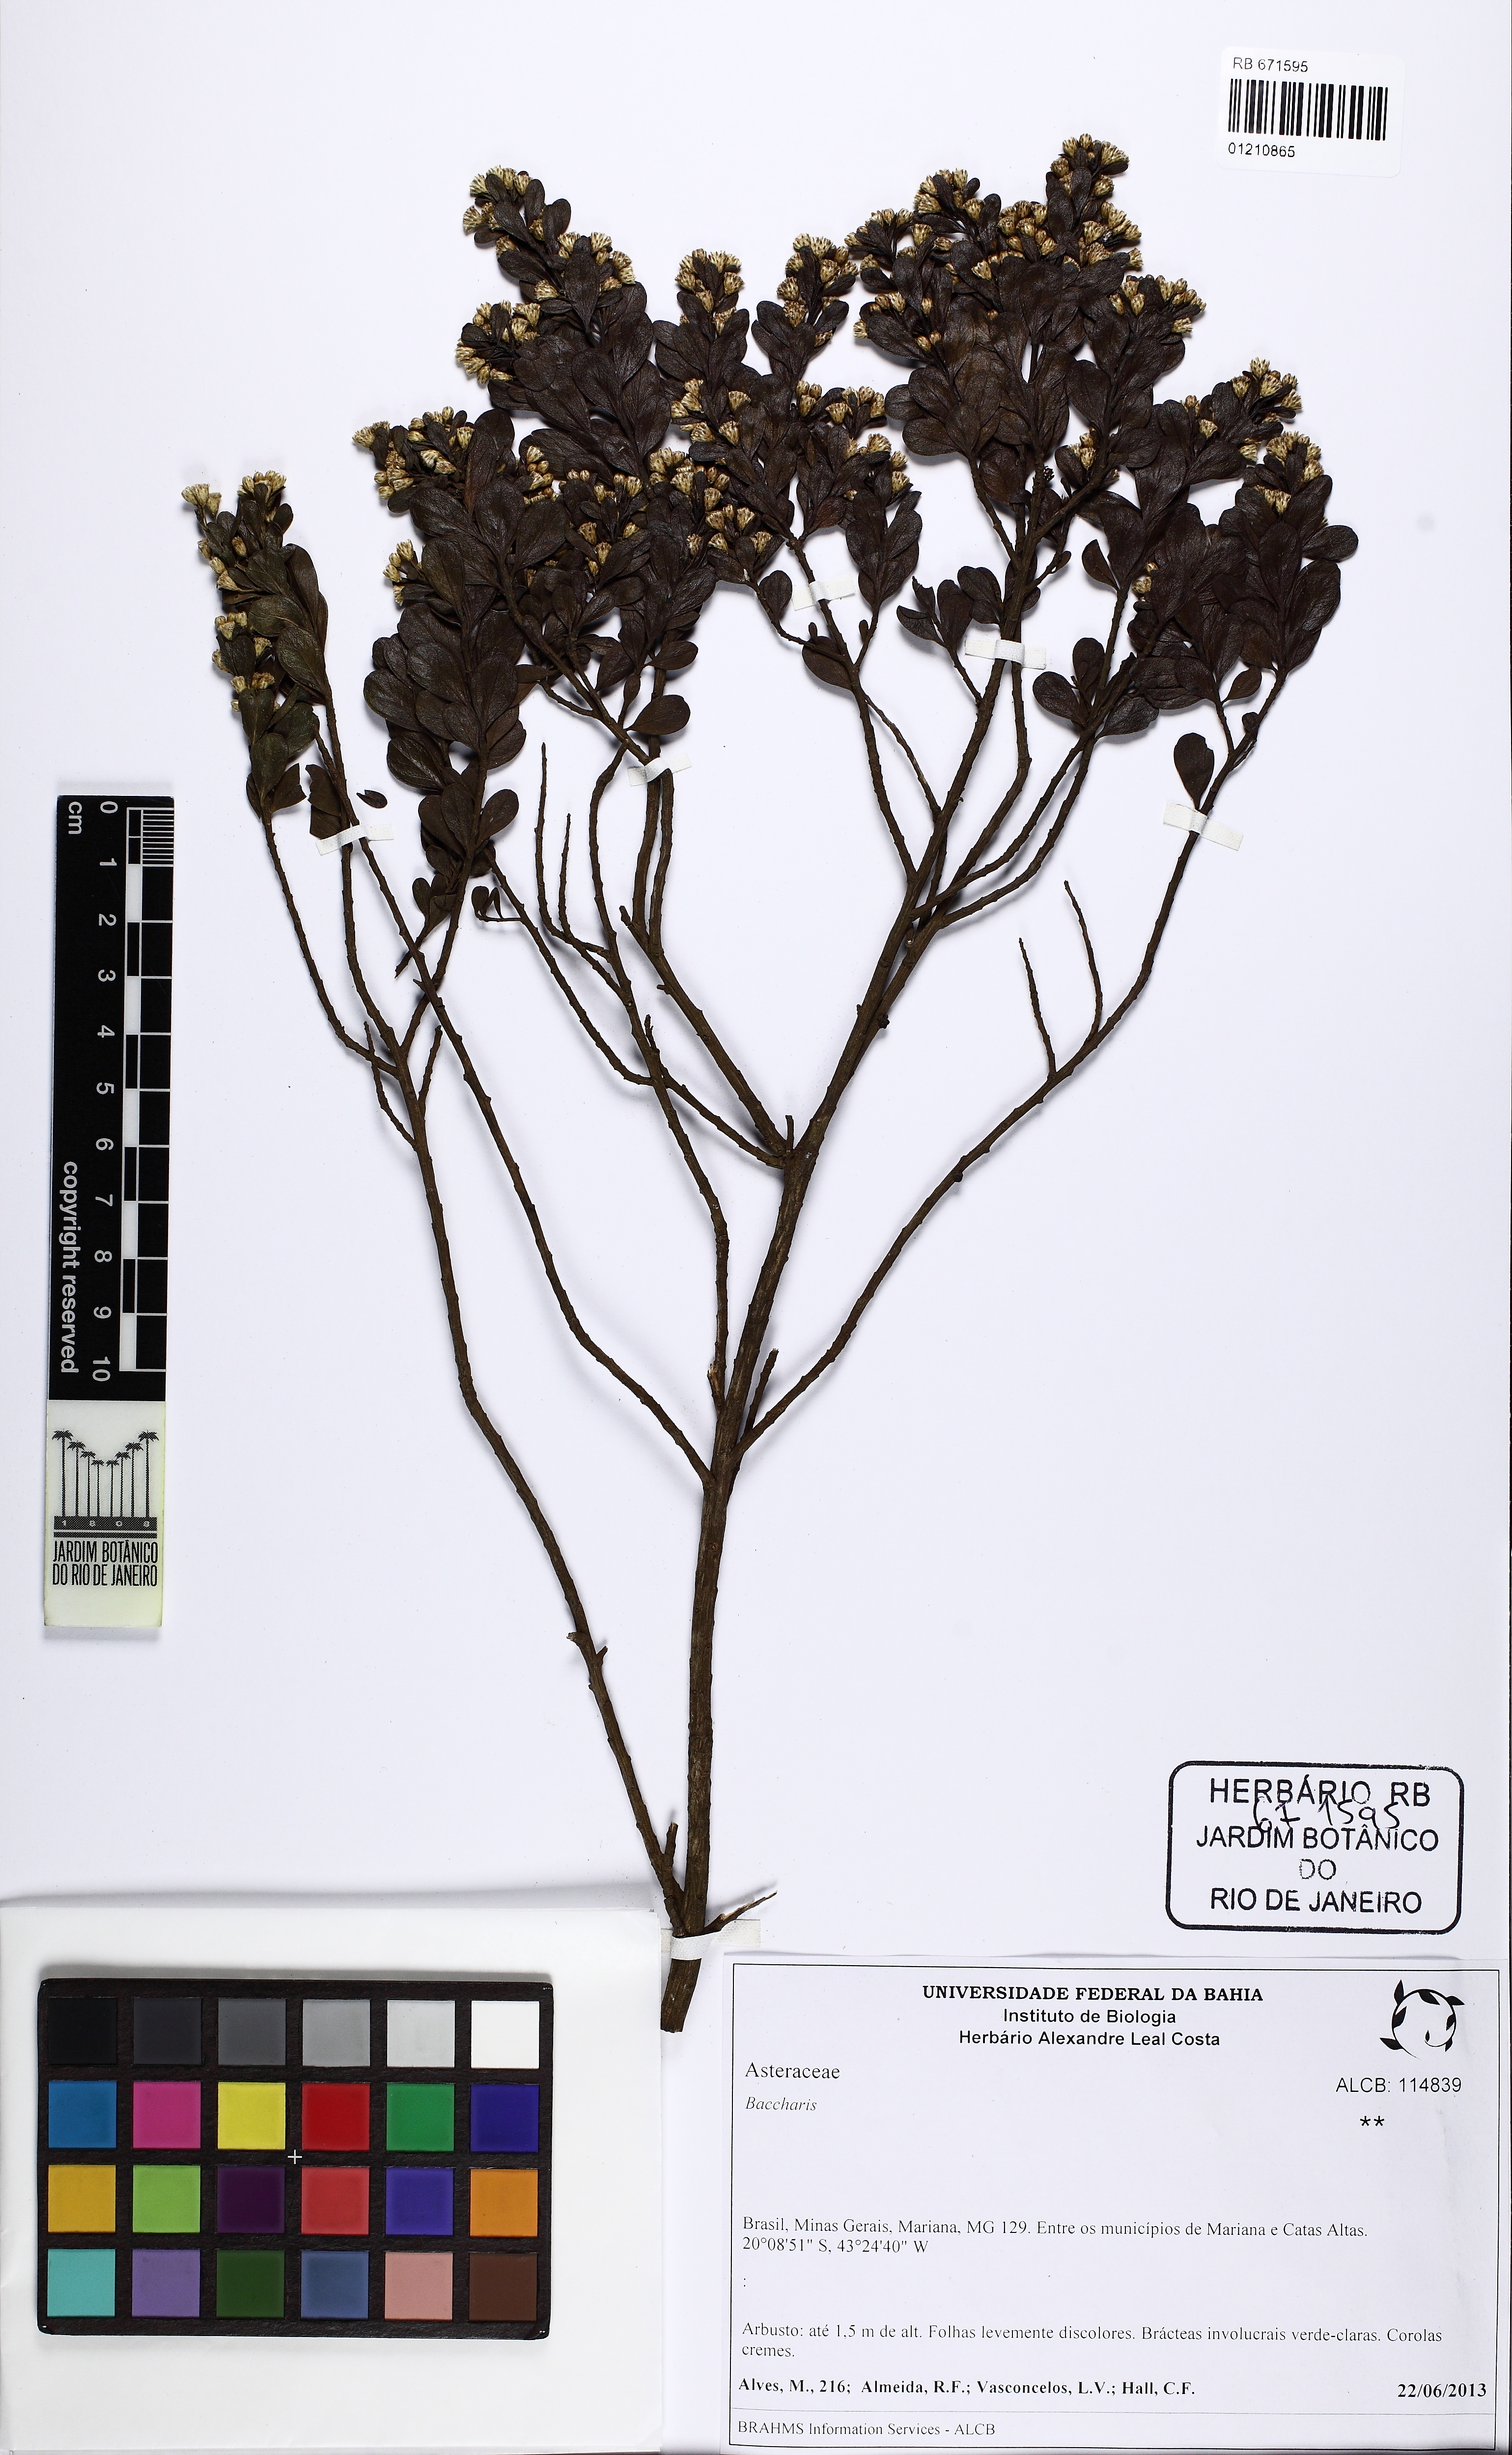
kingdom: Plantae
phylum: Tracheophyta
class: Magnoliopsida
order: Asterales
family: Asteraceae
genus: Baccharis
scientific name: Baccharis reticularia
